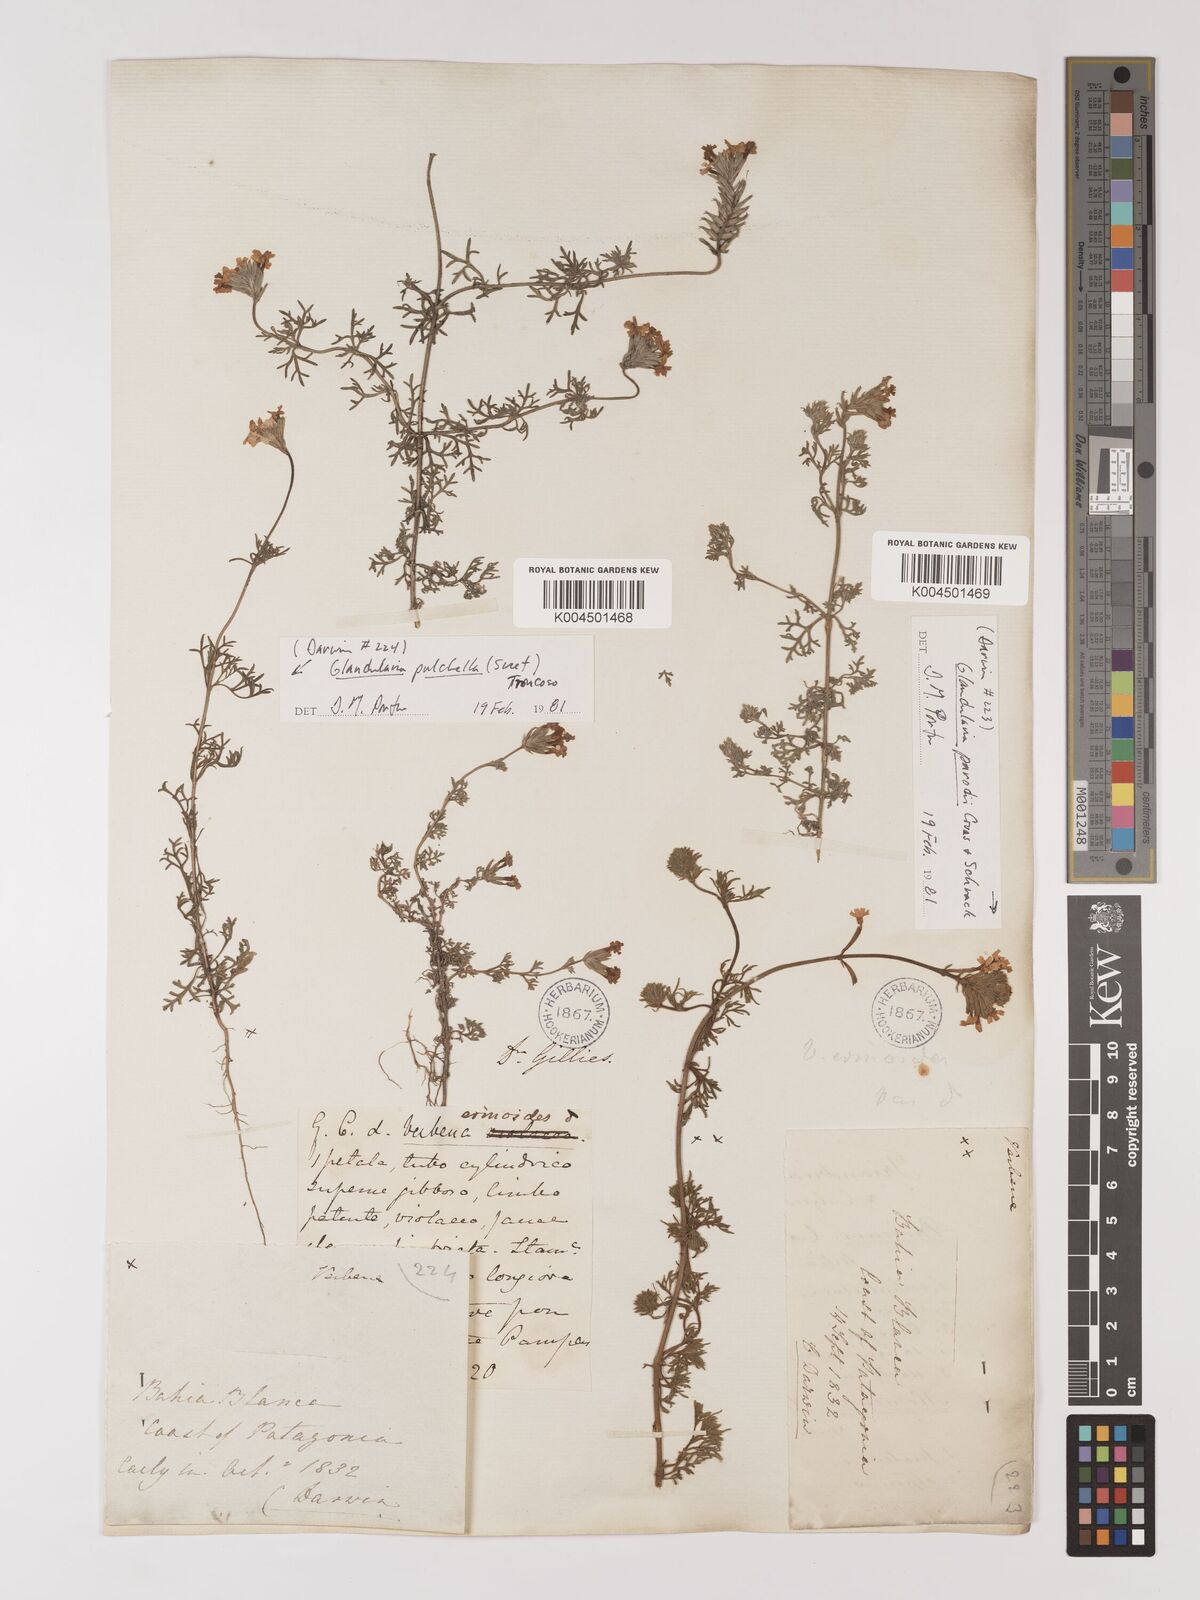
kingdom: Plantae
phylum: Tracheophyta
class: Magnoliopsida
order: Lamiales
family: Verbenaceae
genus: Verbena
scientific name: Verbena tenera
